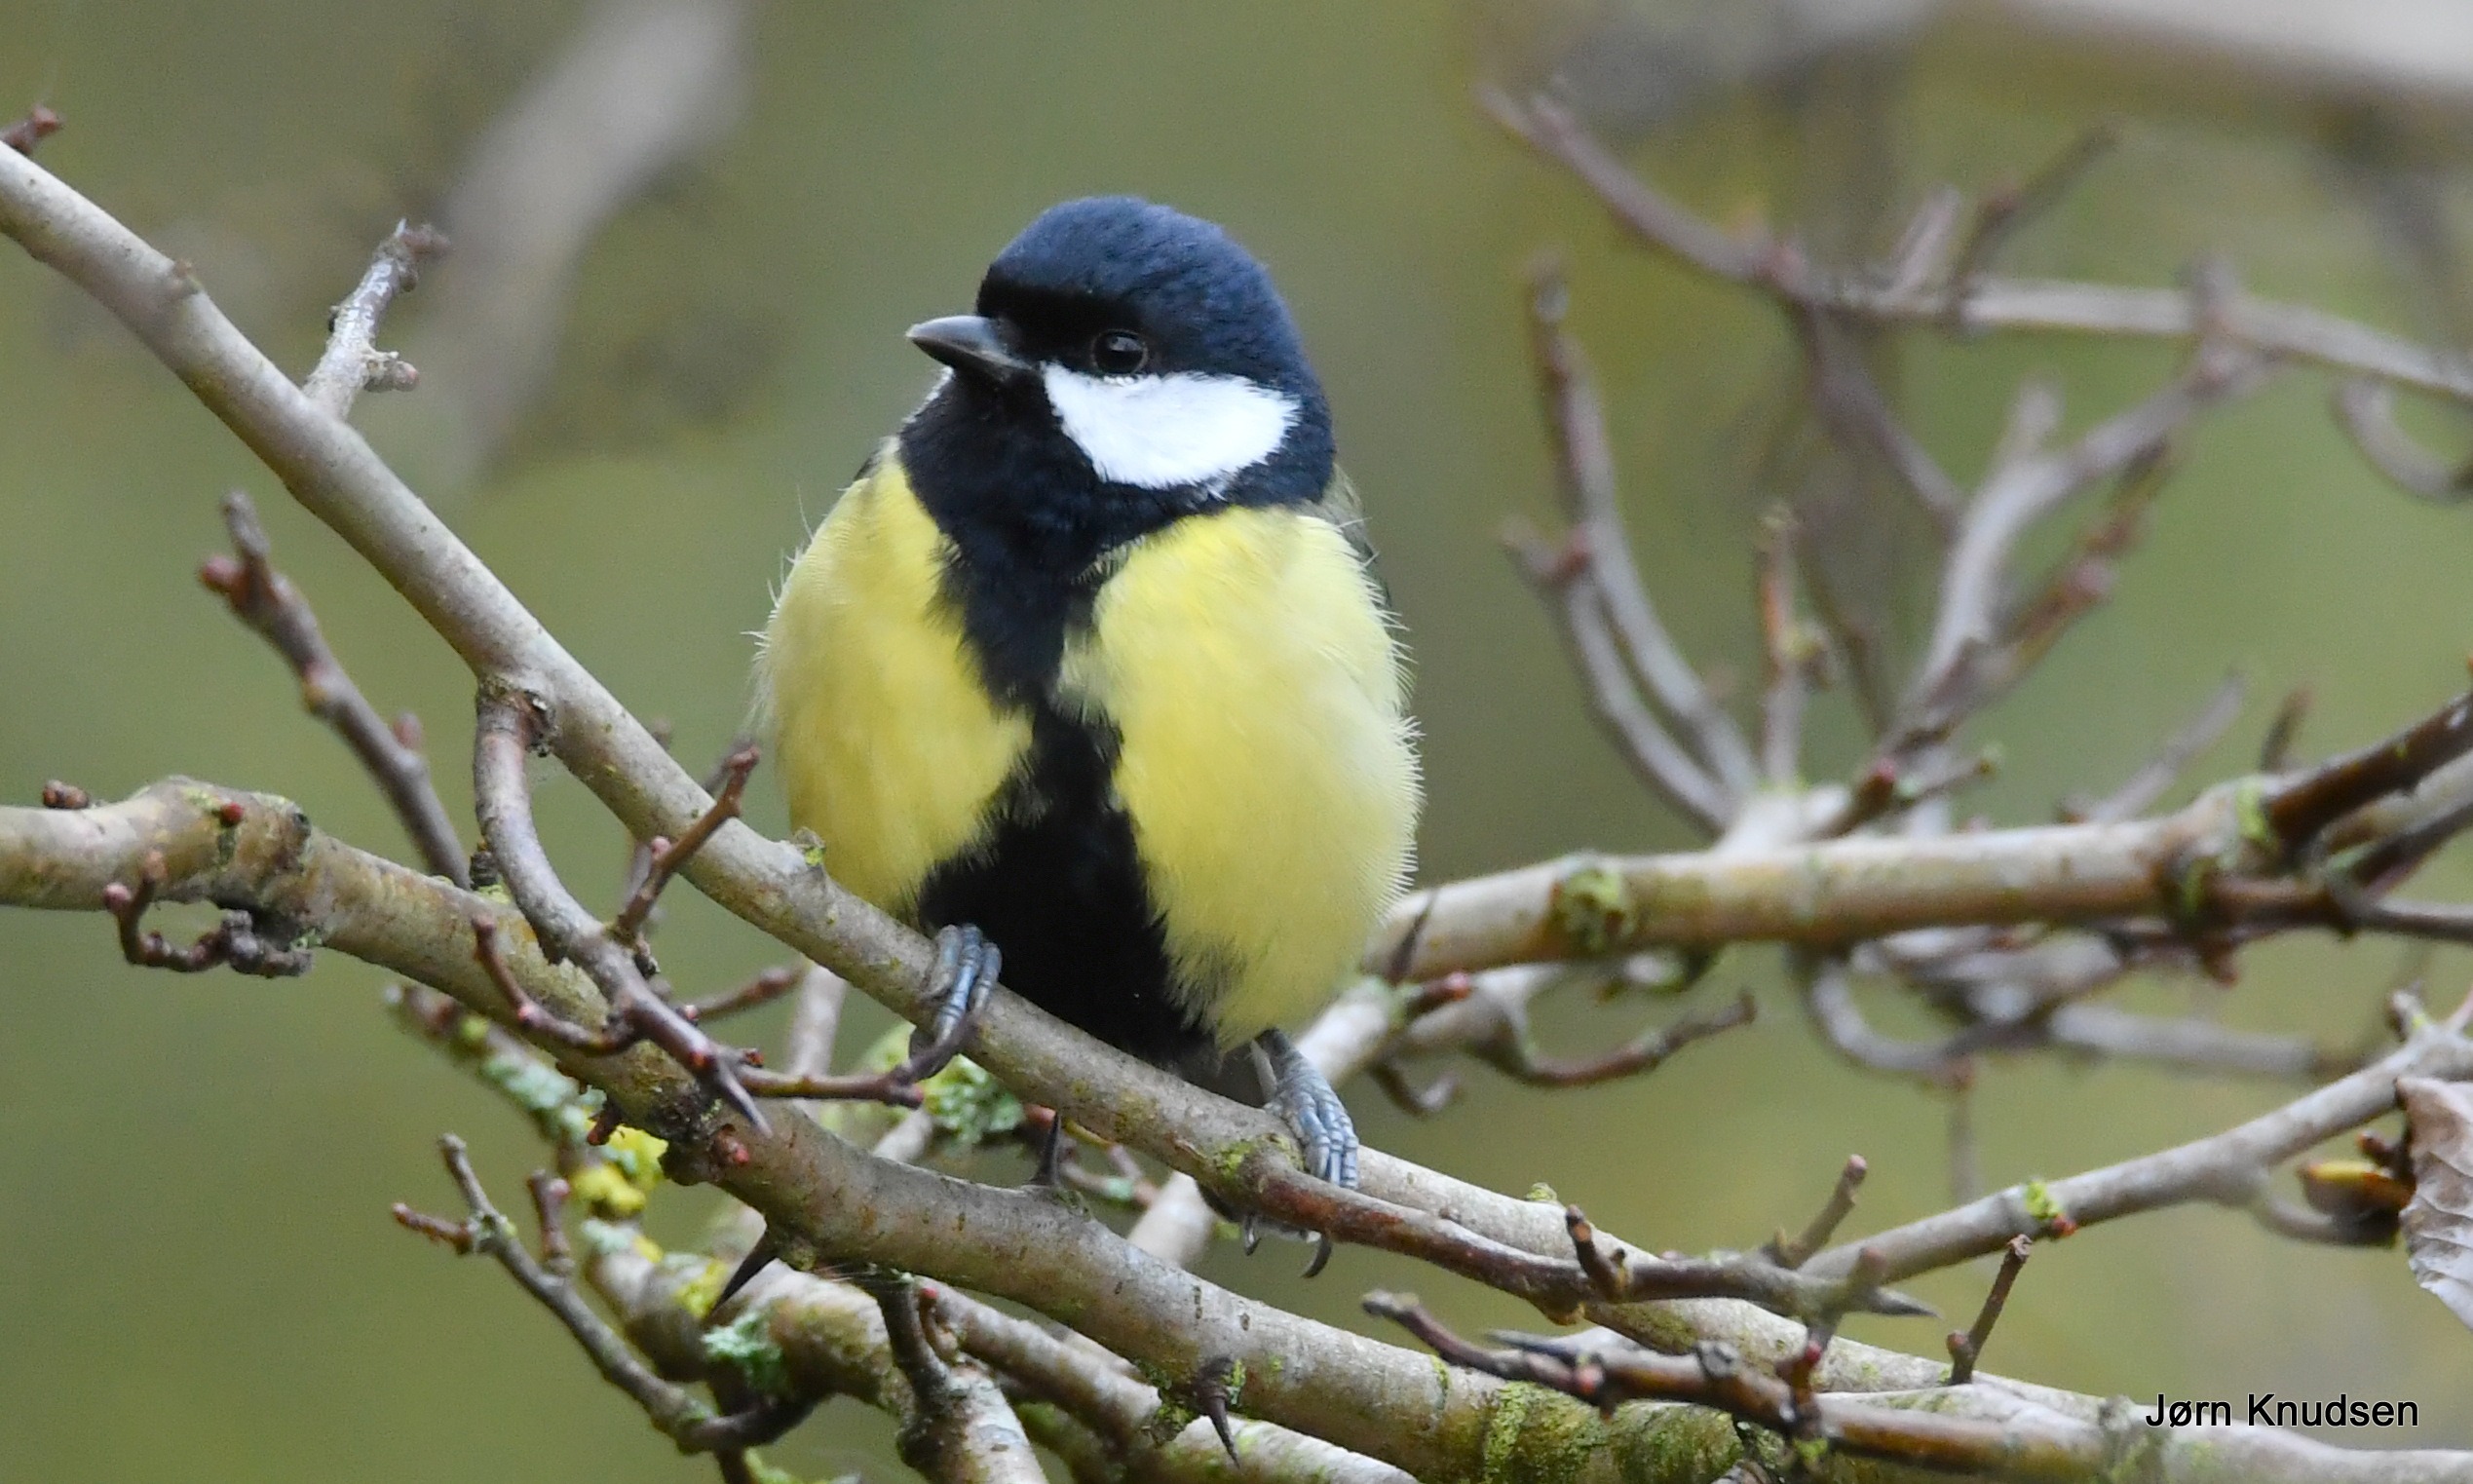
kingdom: Animalia
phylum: Chordata
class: Aves
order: Passeriformes
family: Paridae
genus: Parus
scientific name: Parus major
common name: Musvit
